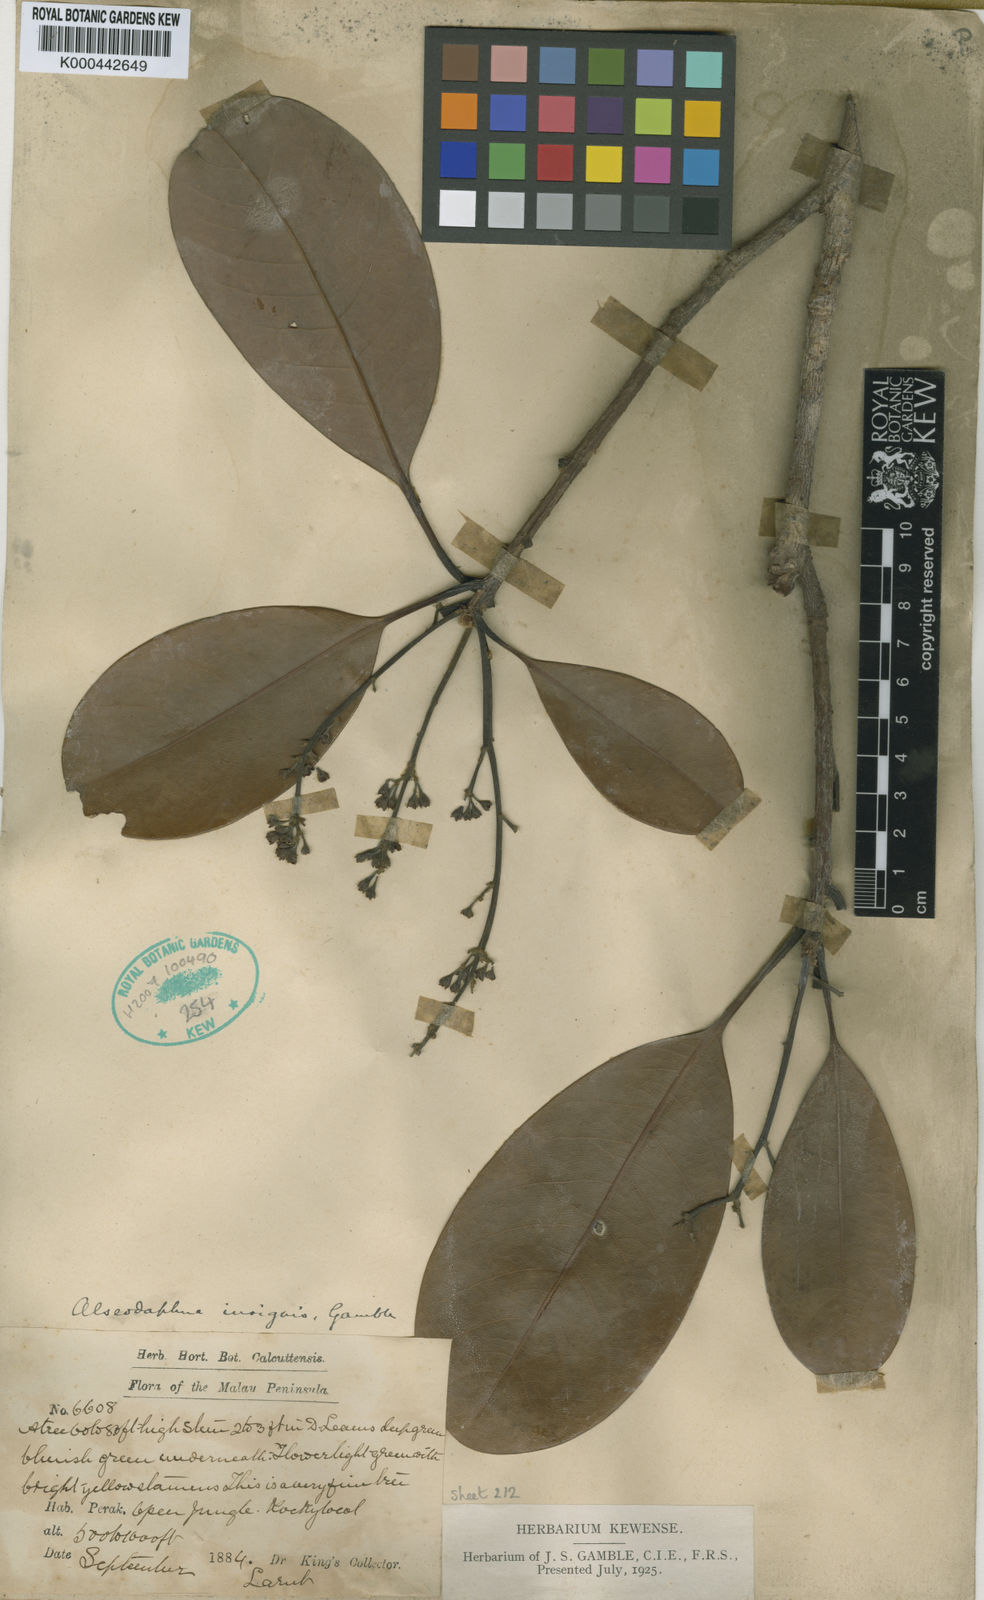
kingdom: Plantae
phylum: Tracheophyta
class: Magnoliopsida
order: Laurales
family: Lauraceae
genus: Alseodaphne
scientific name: Alseodaphne insignis
